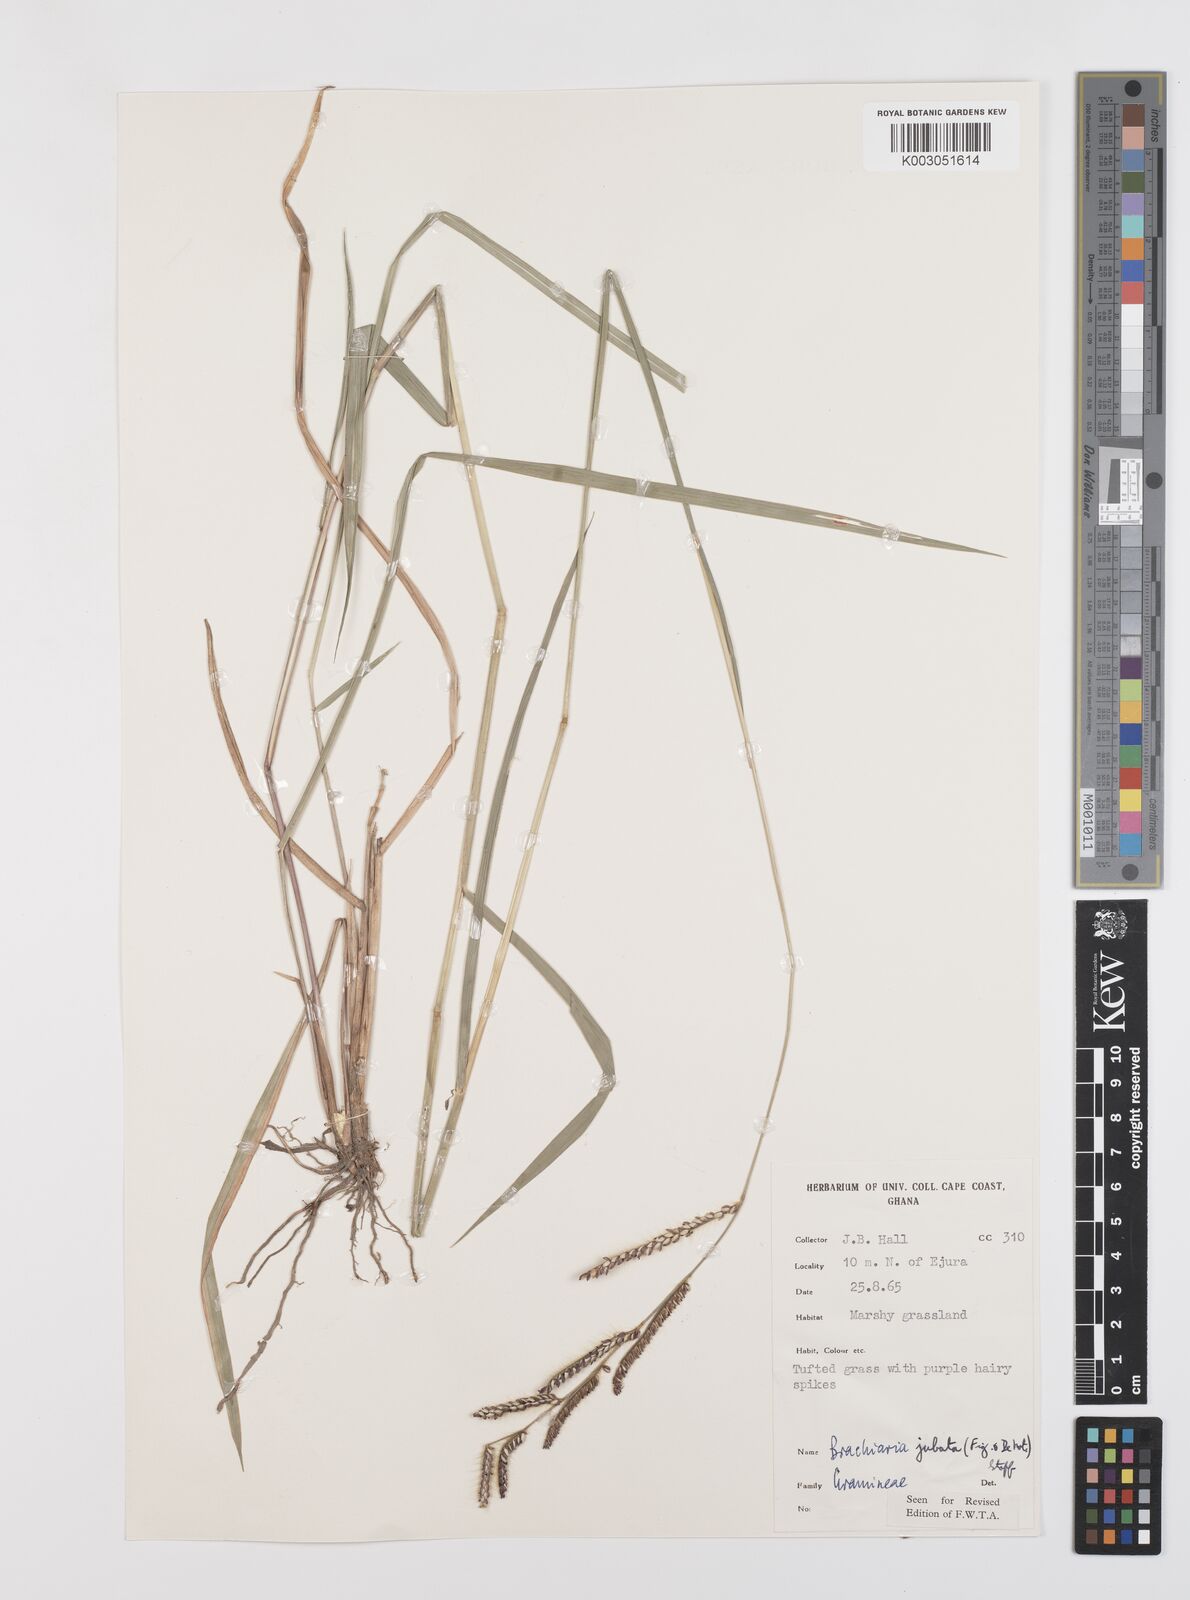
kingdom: Plantae
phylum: Tracheophyta
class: Liliopsida
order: Poales
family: Poaceae
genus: Urochloa
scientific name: Urochloa jubata
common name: Buffalograss
